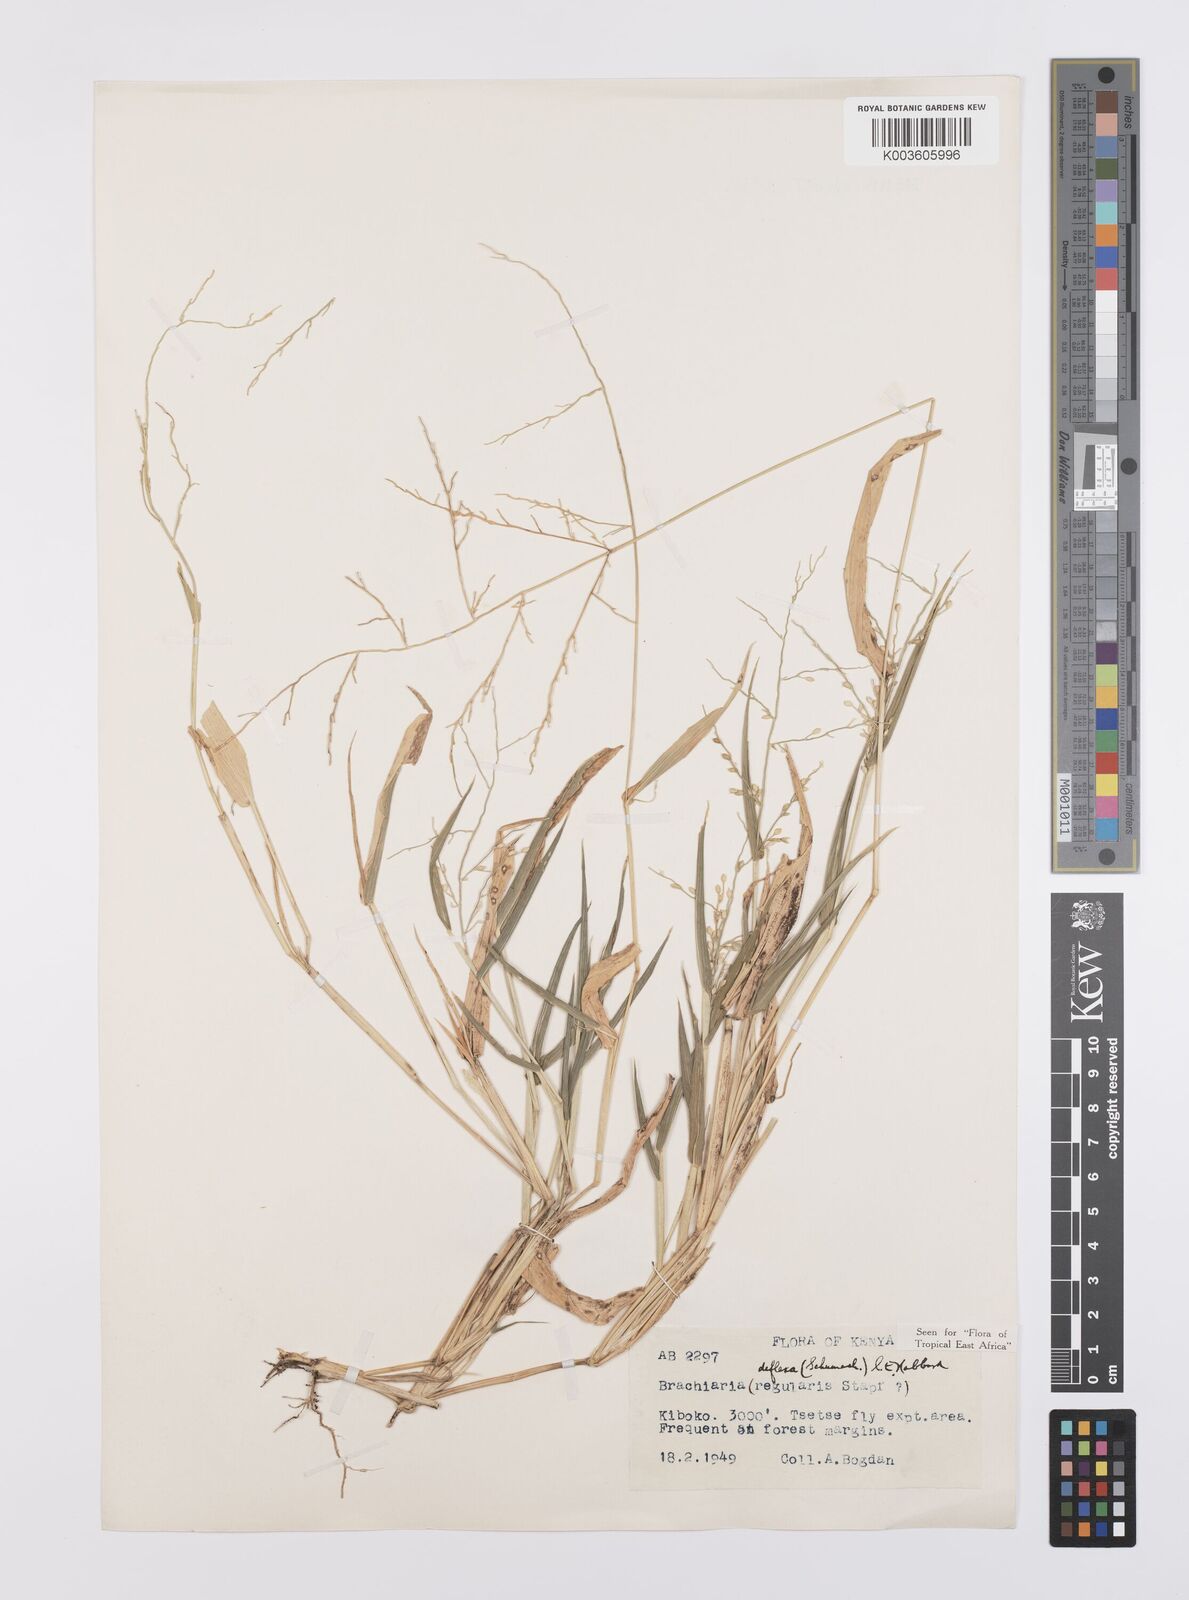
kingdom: Plantae
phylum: Tracheophyta
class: Liliopsida
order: Poales
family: Poaceae
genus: Urochloa
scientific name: Urochloa deflexa
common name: Guinea millet
